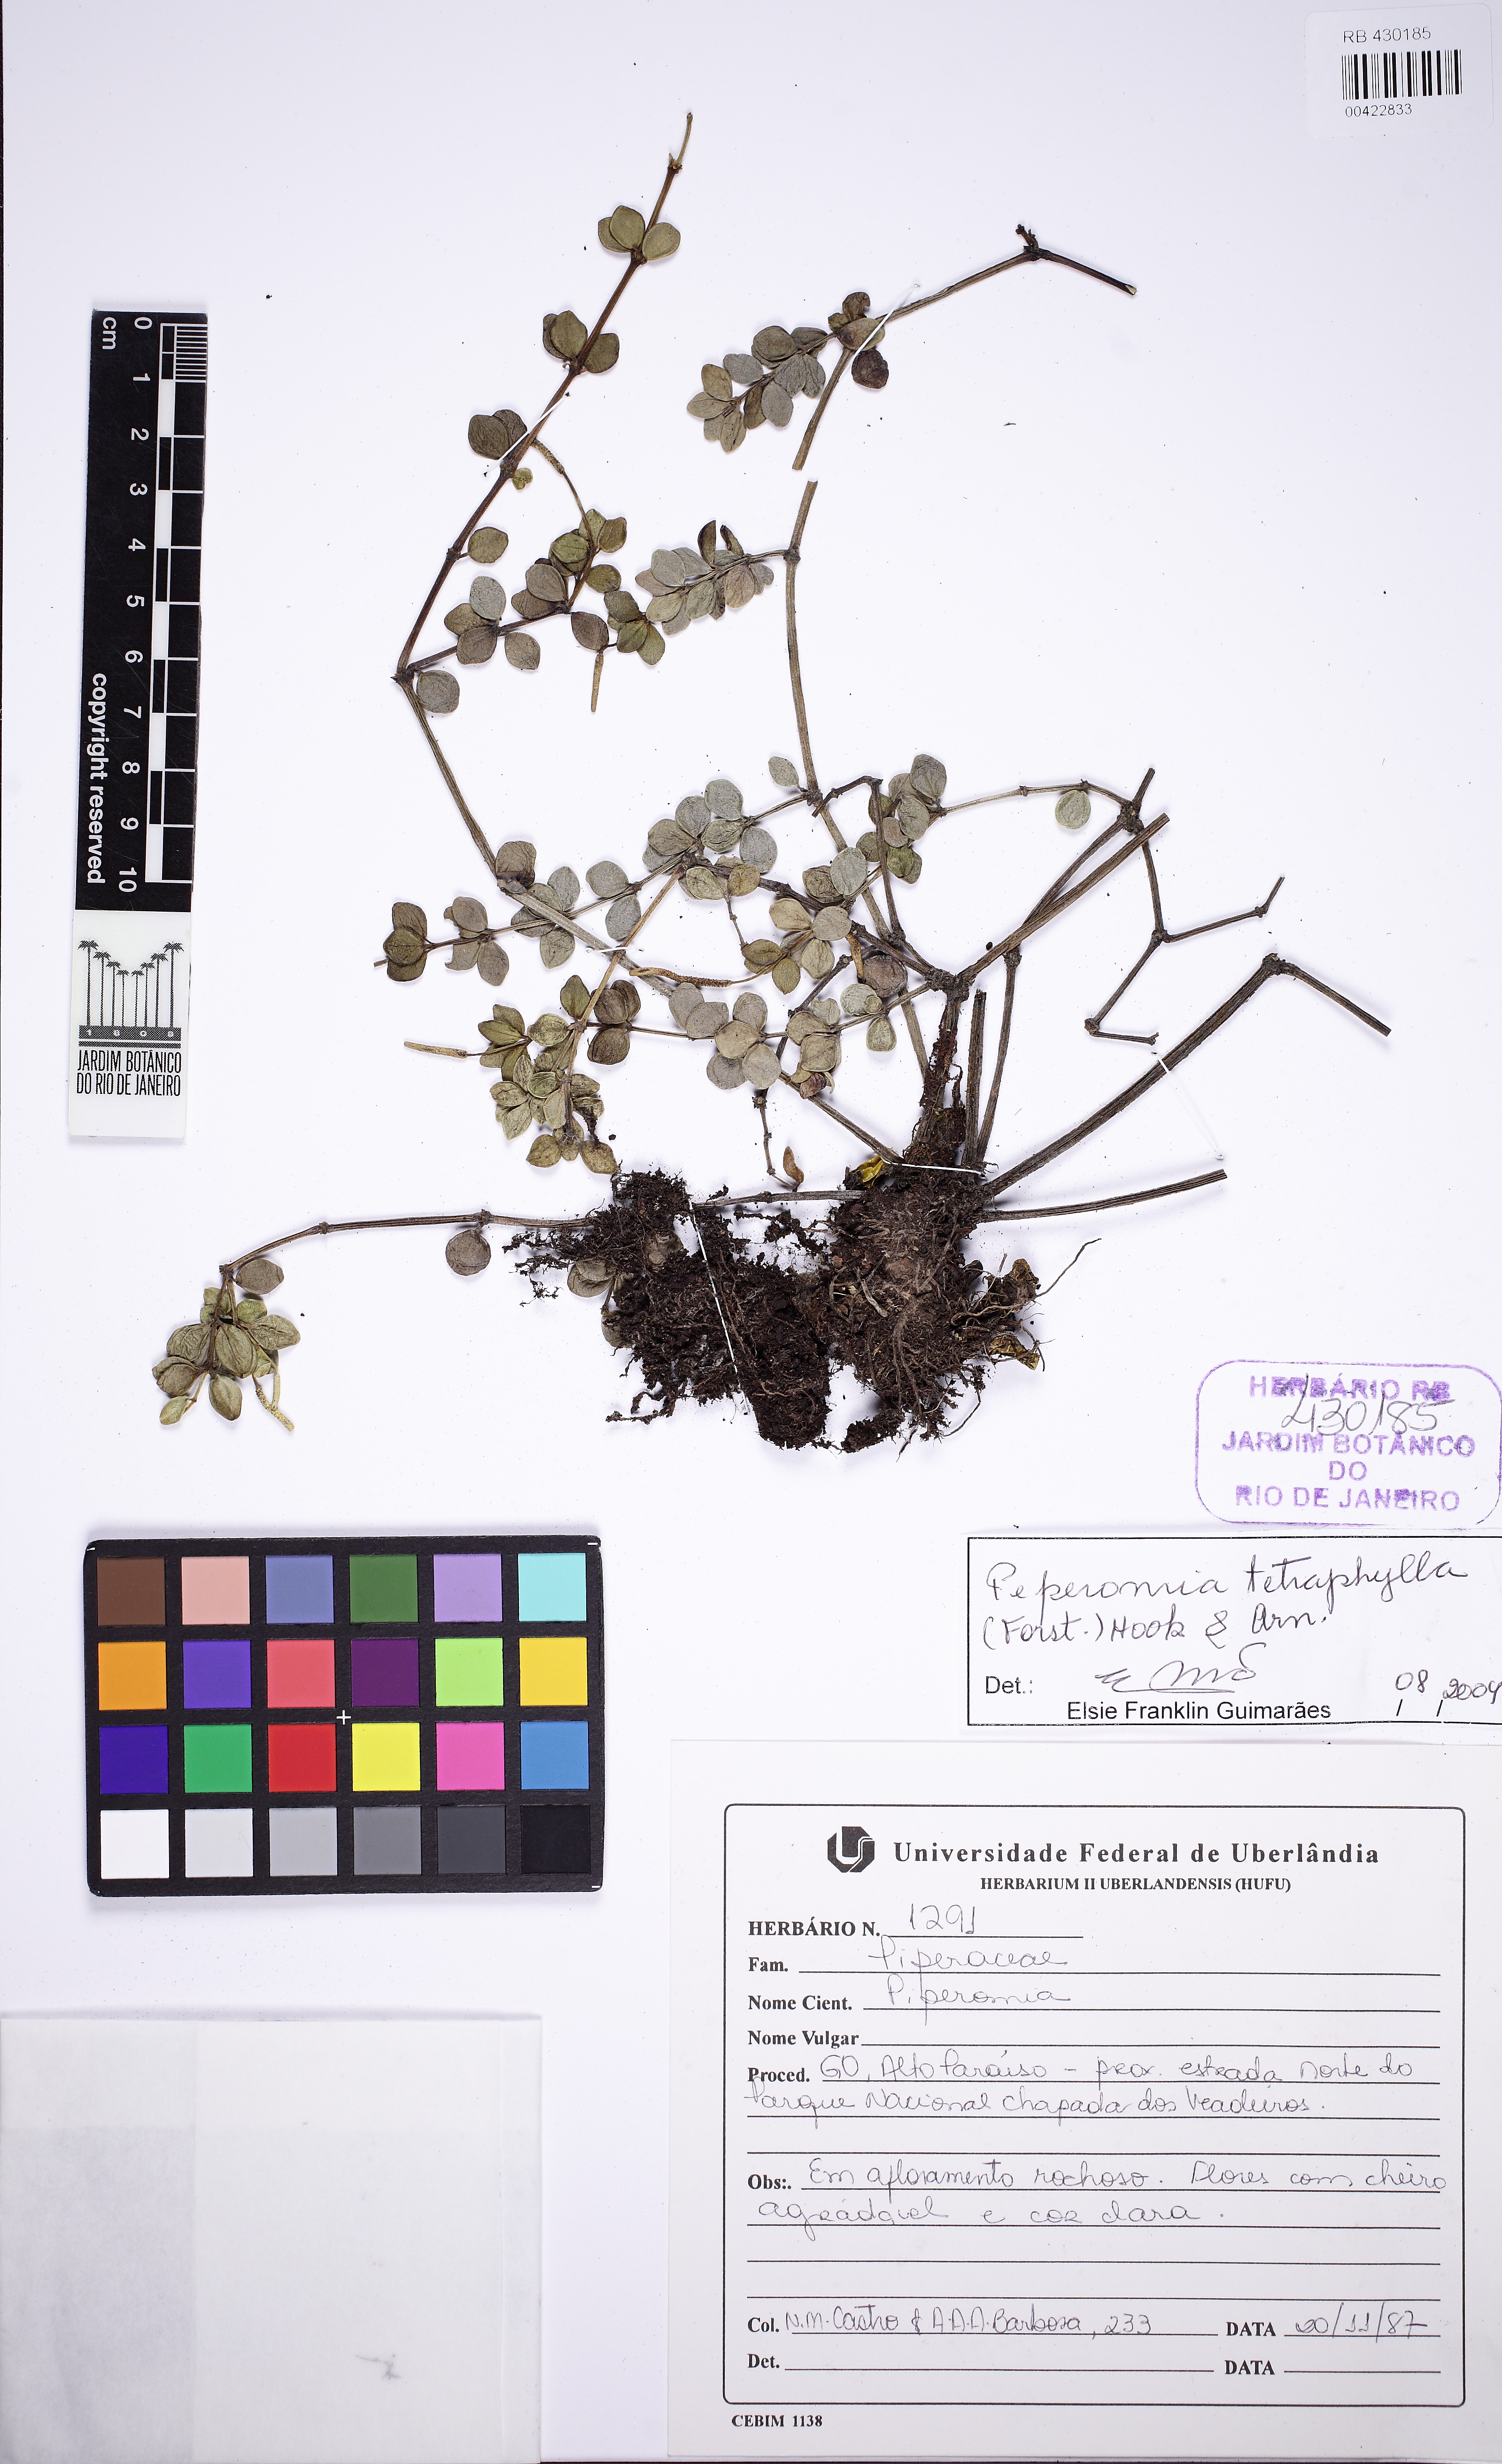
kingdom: Plantae
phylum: Tracheophyta
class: Magnoliopsida
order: Piperales
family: Piperaceae
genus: Peperomia
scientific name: Peperomia tetraphylla
